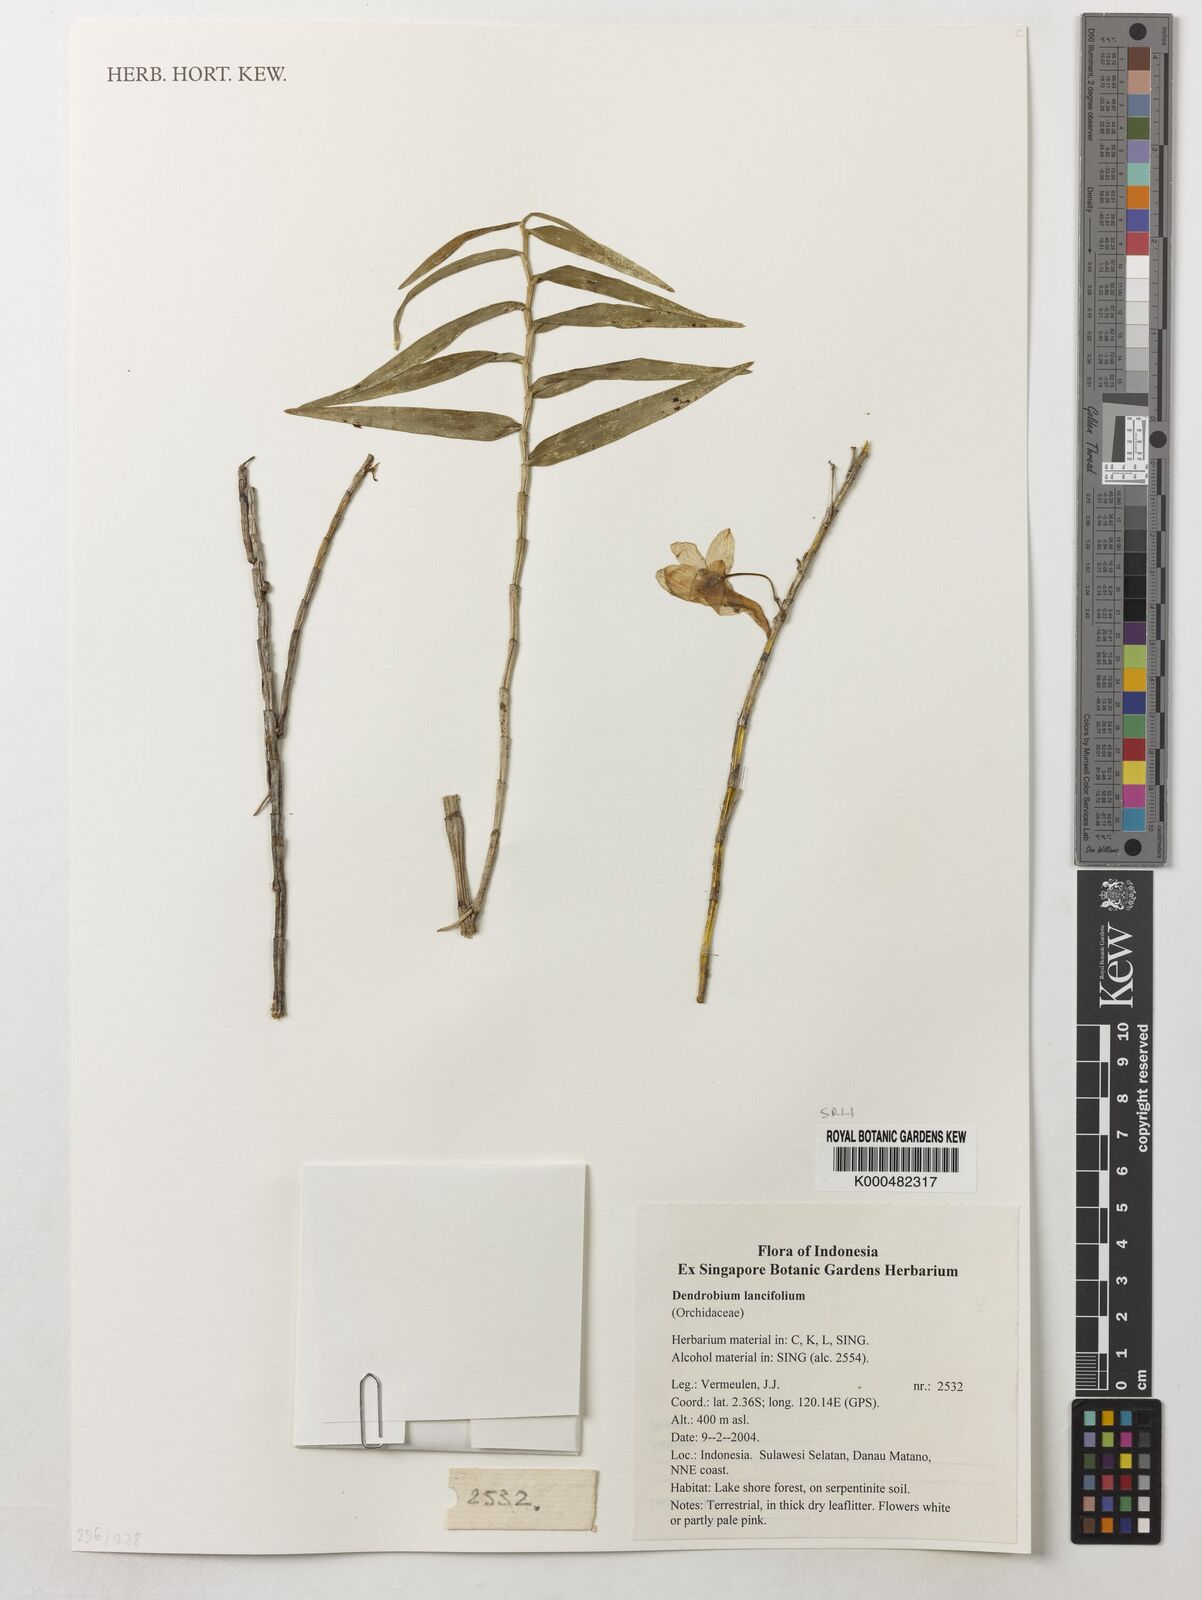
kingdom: Plantae
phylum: Tracheophyta
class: Liliopsida
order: Asparagales
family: Orchidaceae
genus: Dendrobium
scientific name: Dendrobium lanceolatum
